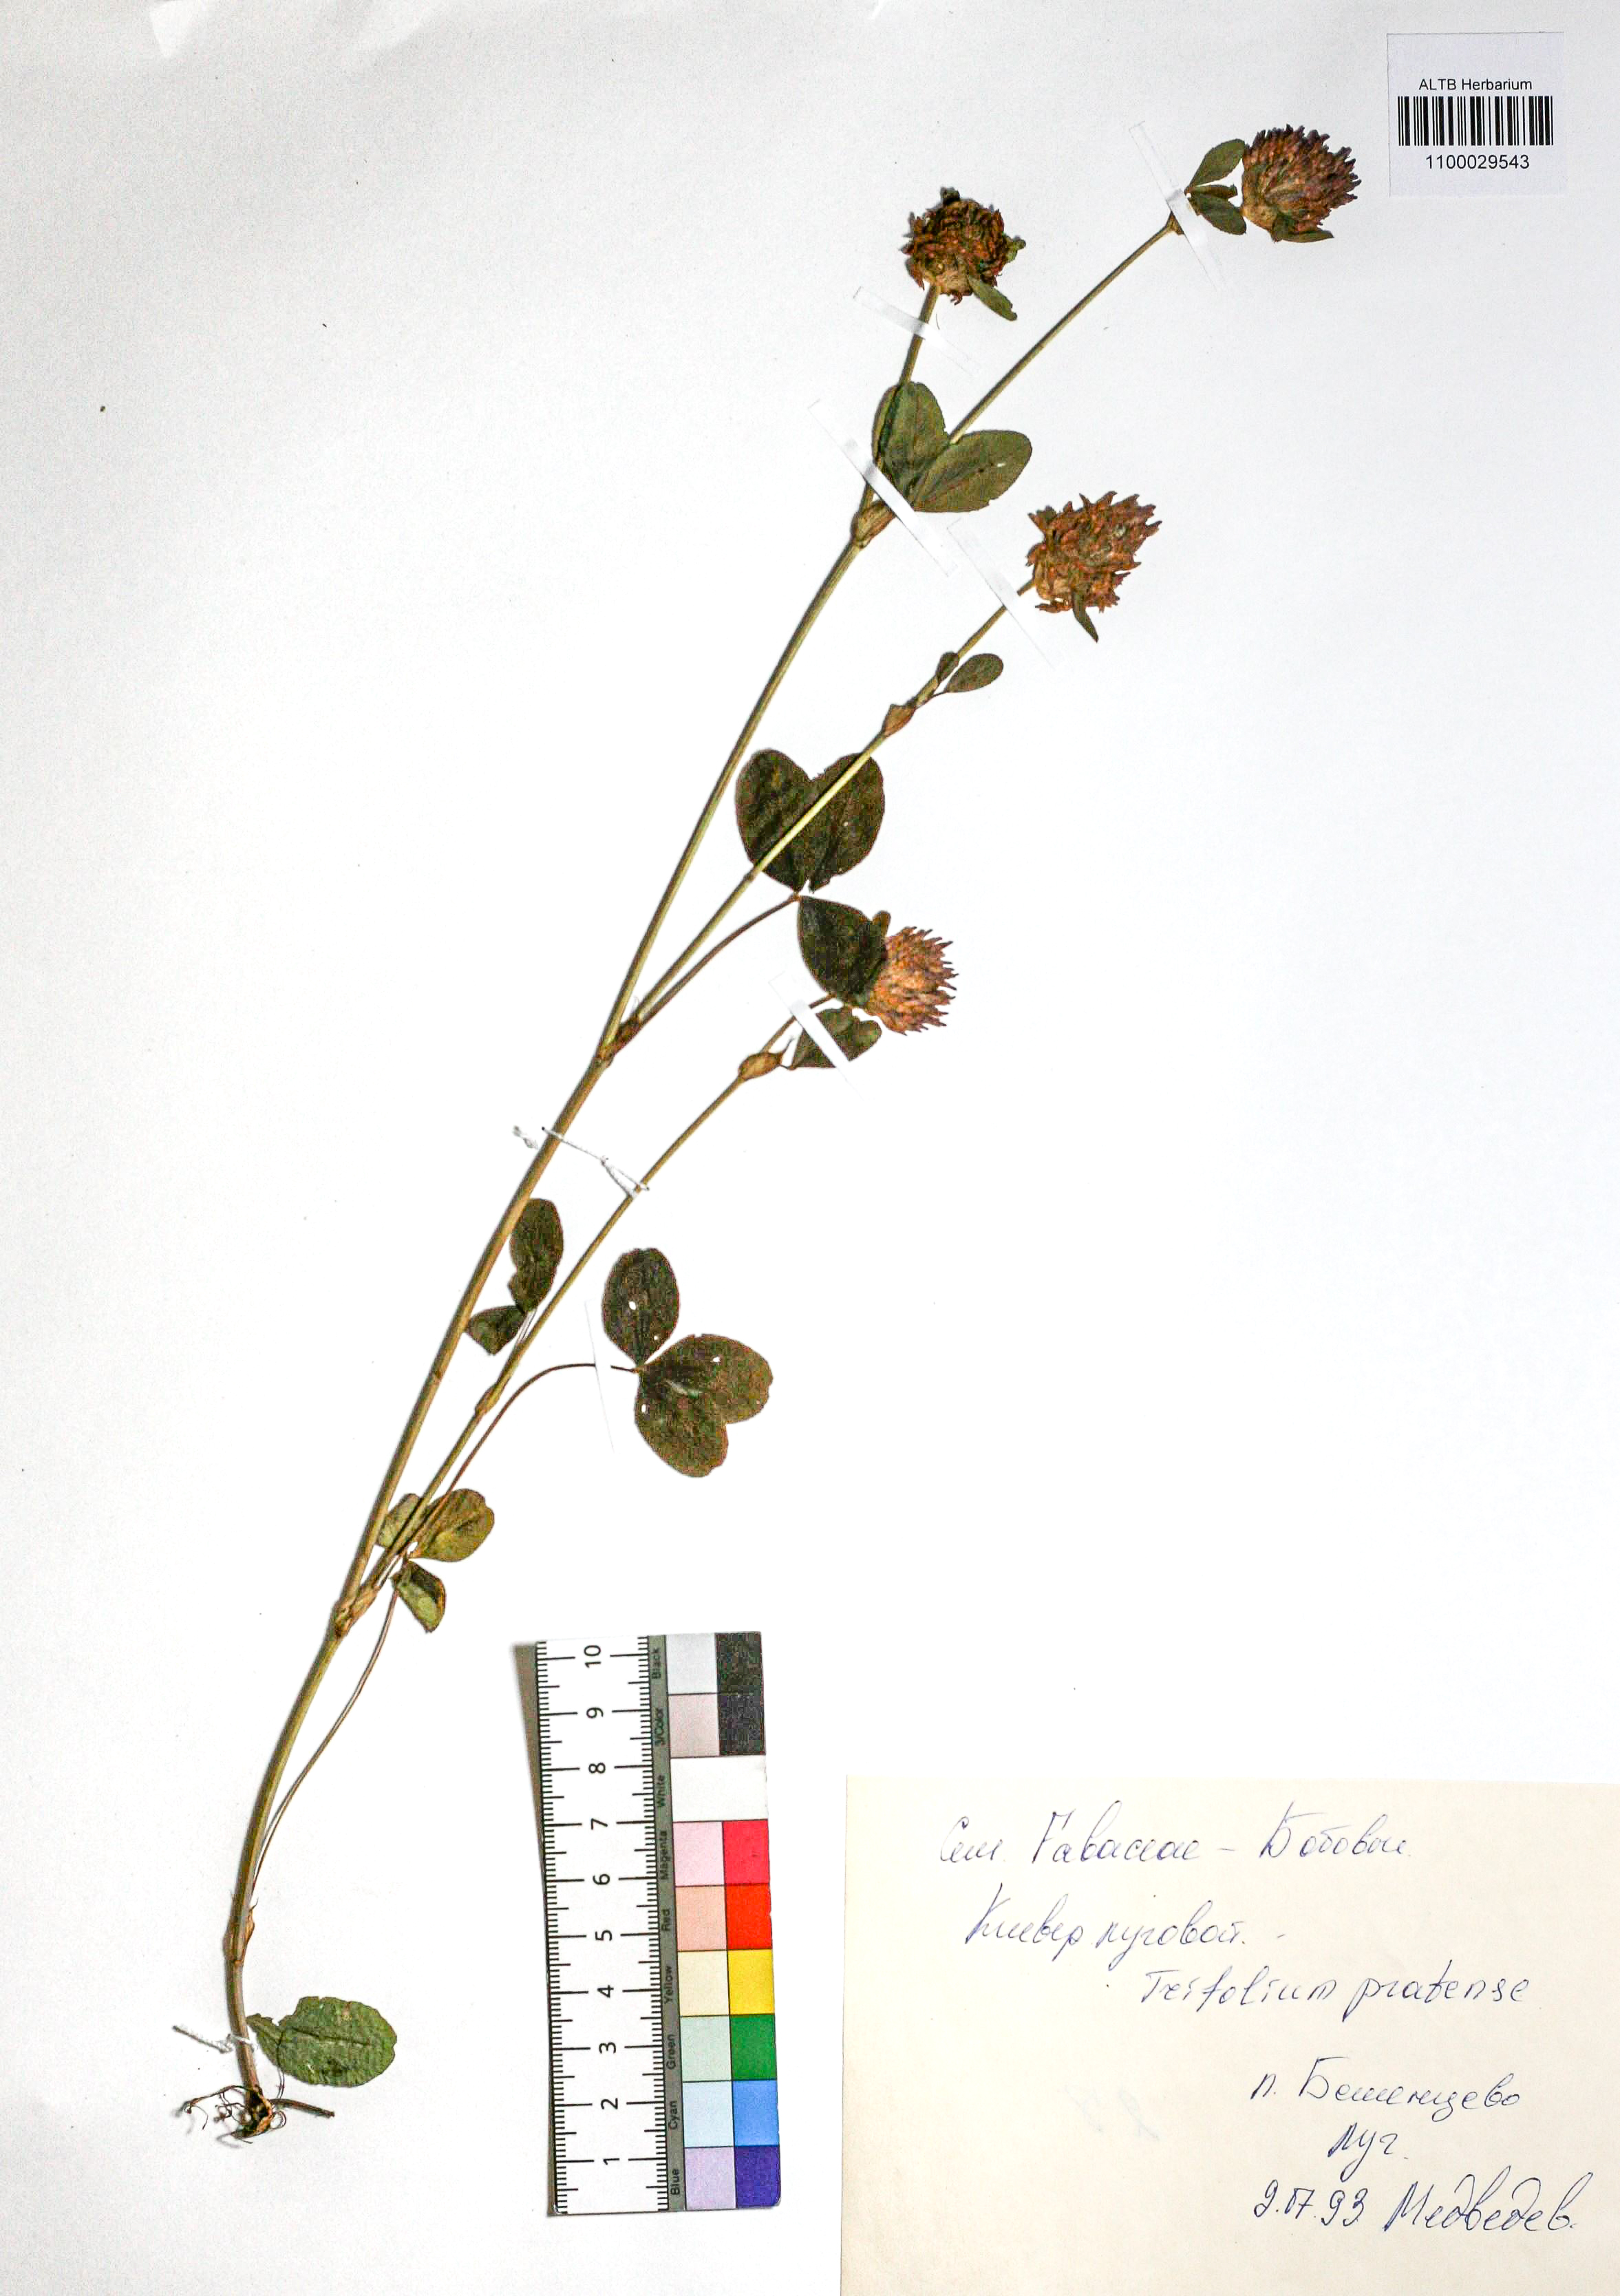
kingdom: Plantae
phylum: Tracheophyta
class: Magnoliopsida
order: Fabales
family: Fabaceae
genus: Trifolium
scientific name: Trifolium pratense
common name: Red clover
